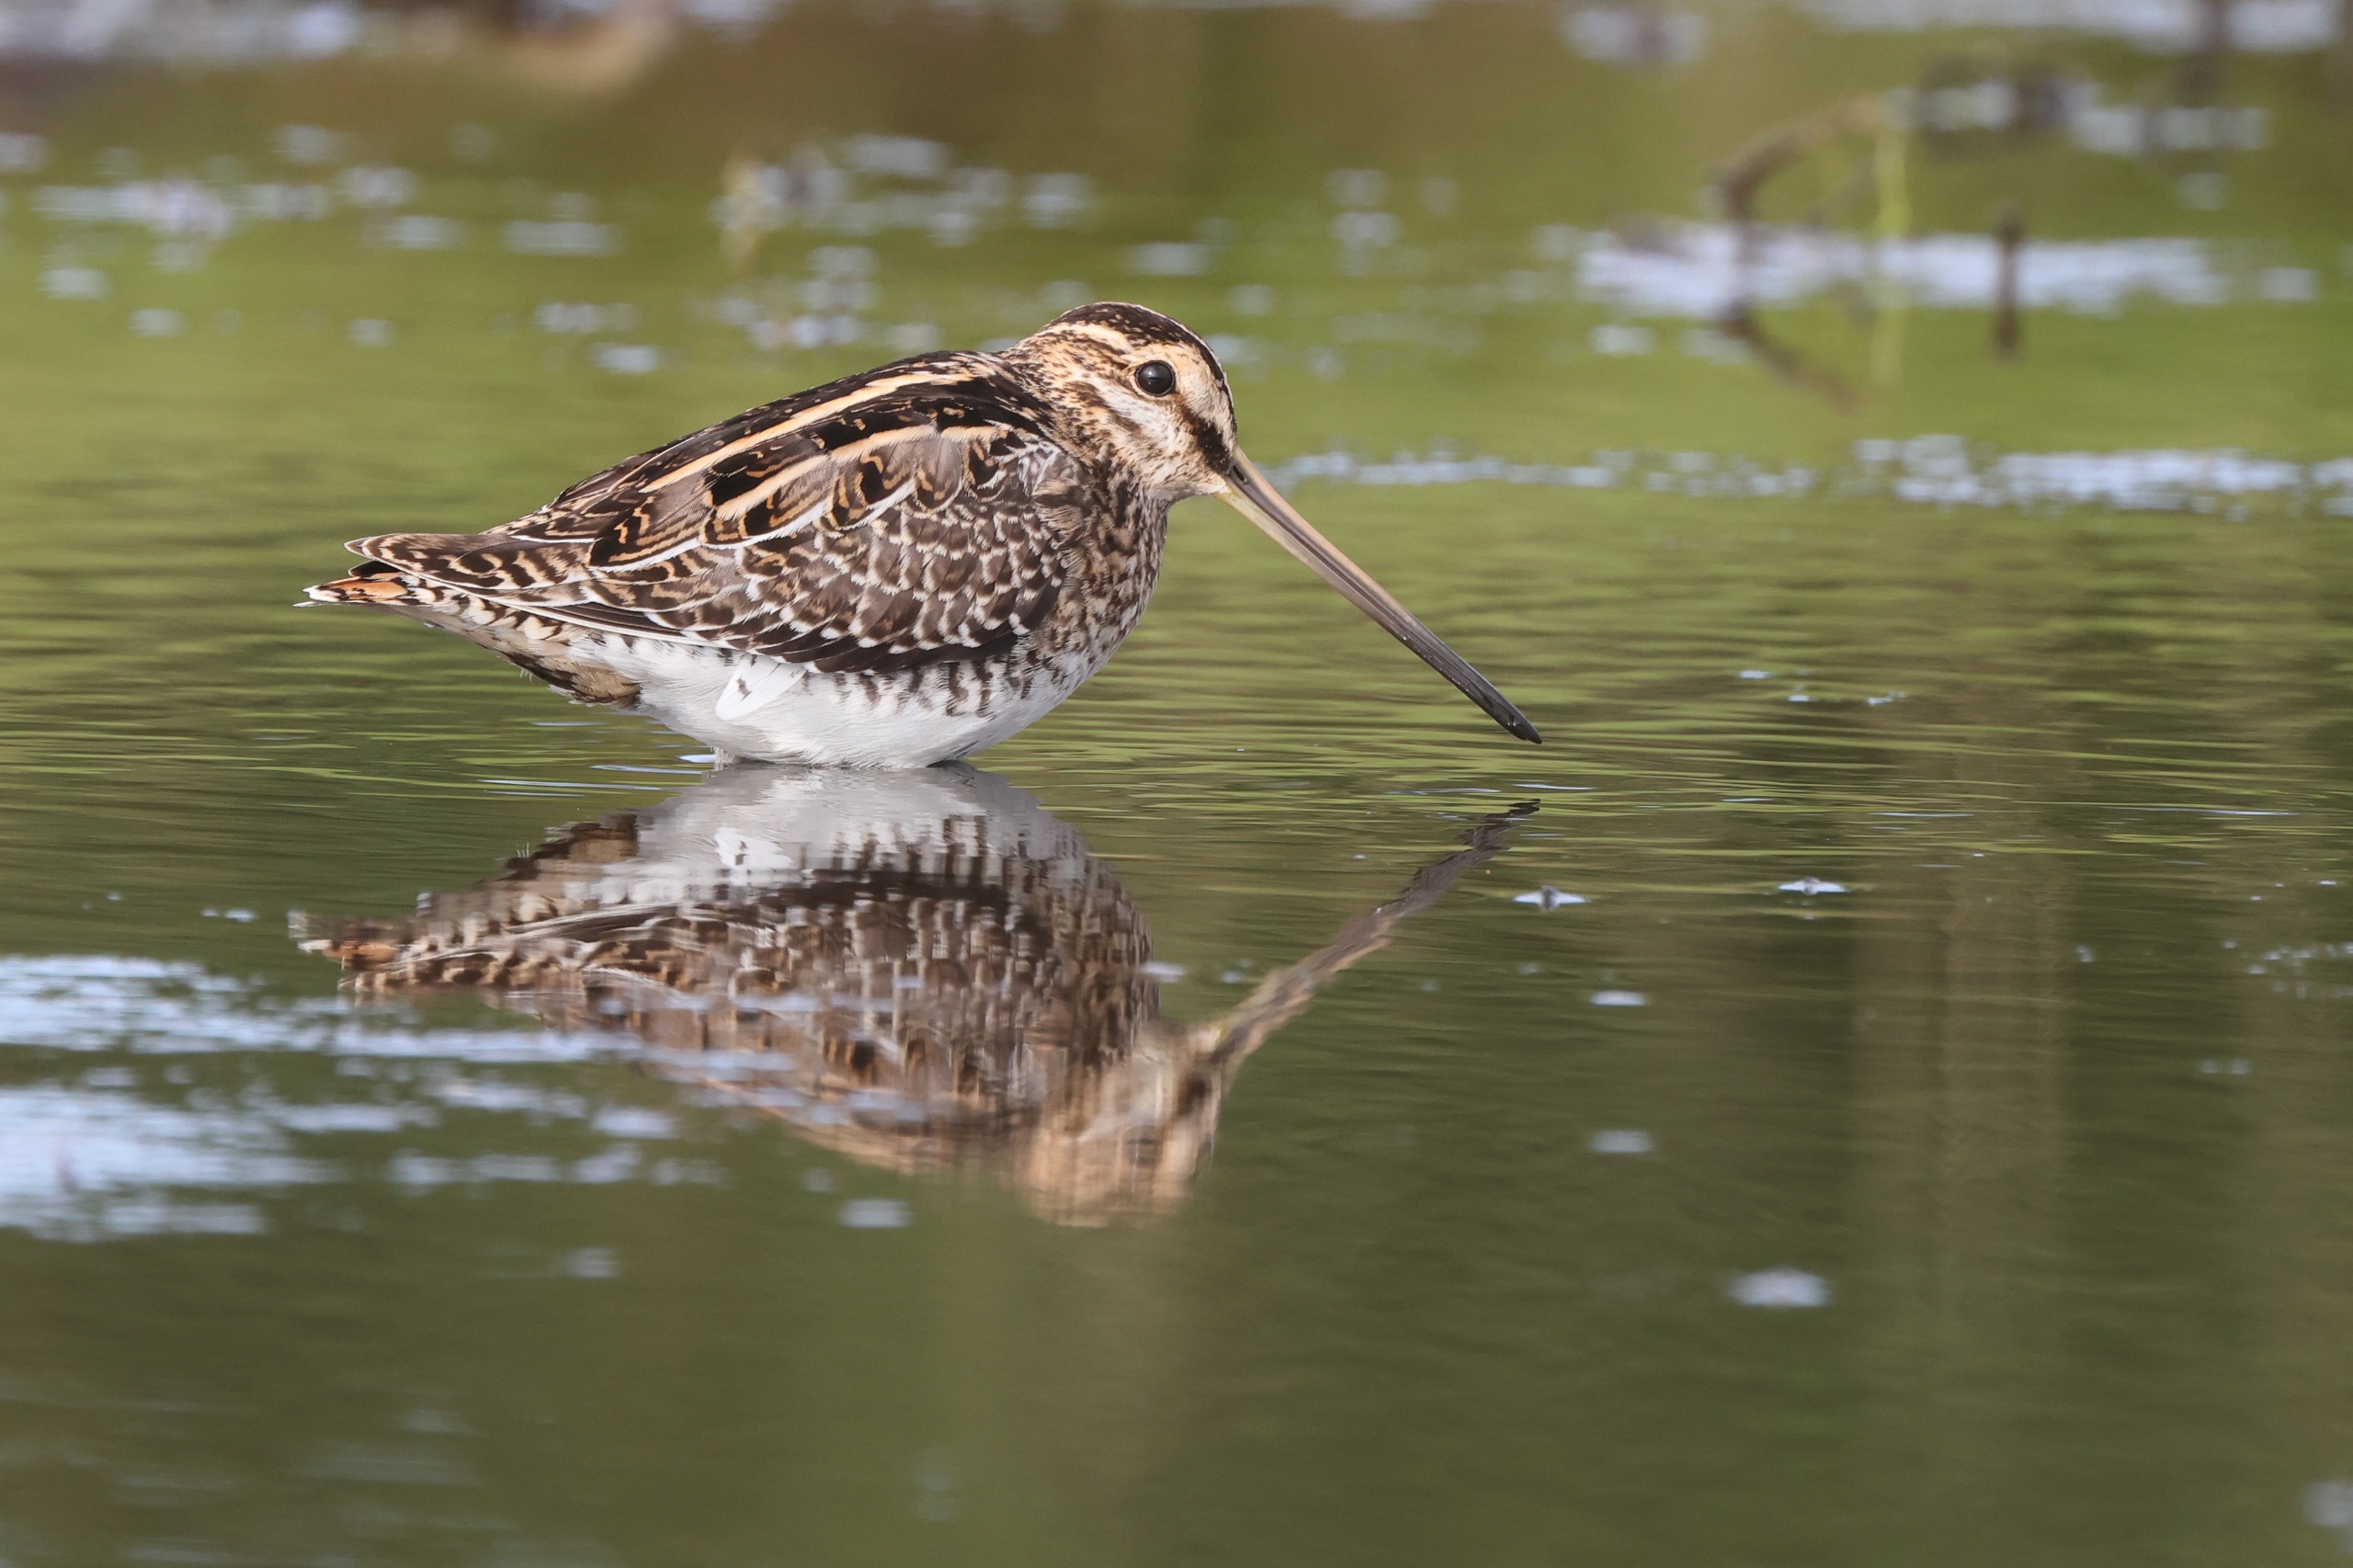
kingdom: Animalia
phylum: Chordata
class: Aves
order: Charadriiformes
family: Scolopacidae
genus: Gallinago
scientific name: Gallinago gallinago
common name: Dobbeltbekkasin
